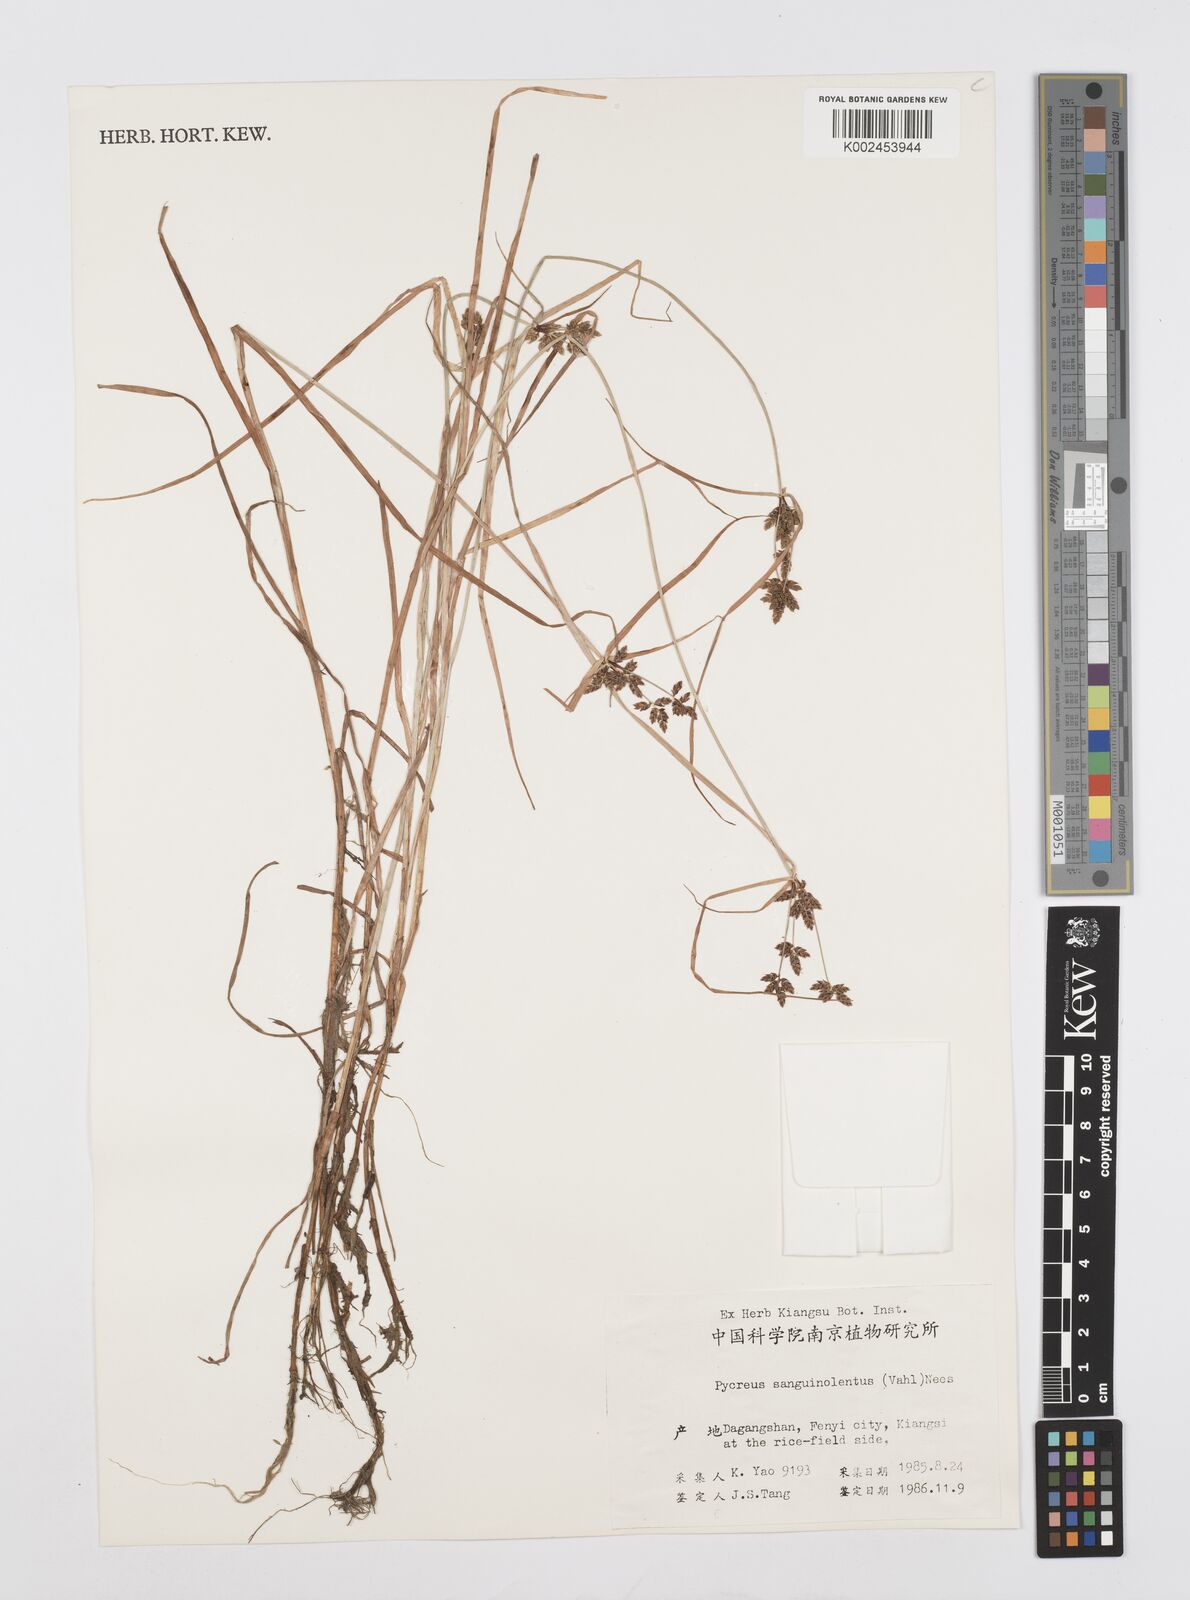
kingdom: Plantae
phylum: Tracheophyta
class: Liliopsida
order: Poales
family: Cyperaceae
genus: Cyperus
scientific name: Cyperus sanguinolentus
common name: Purpleglume flatsedge
